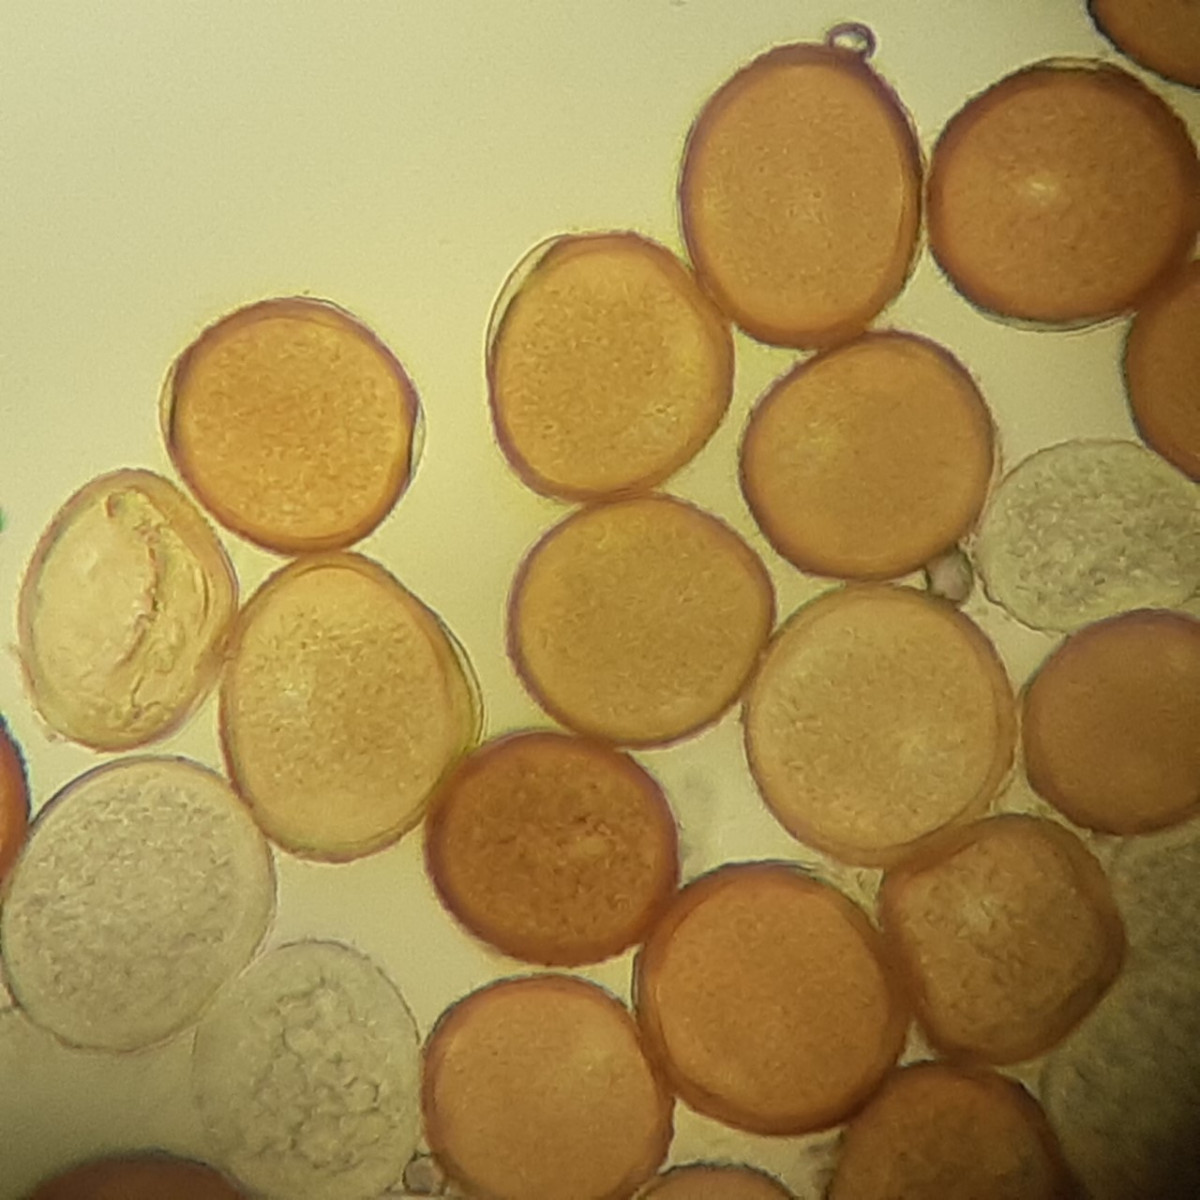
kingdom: Fungi
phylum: Basidiomycota
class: Pucciniomycetes
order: Pucciniales
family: Pucciniaceae
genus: Puccinia
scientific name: Puccinia cnici
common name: Rust fungus
